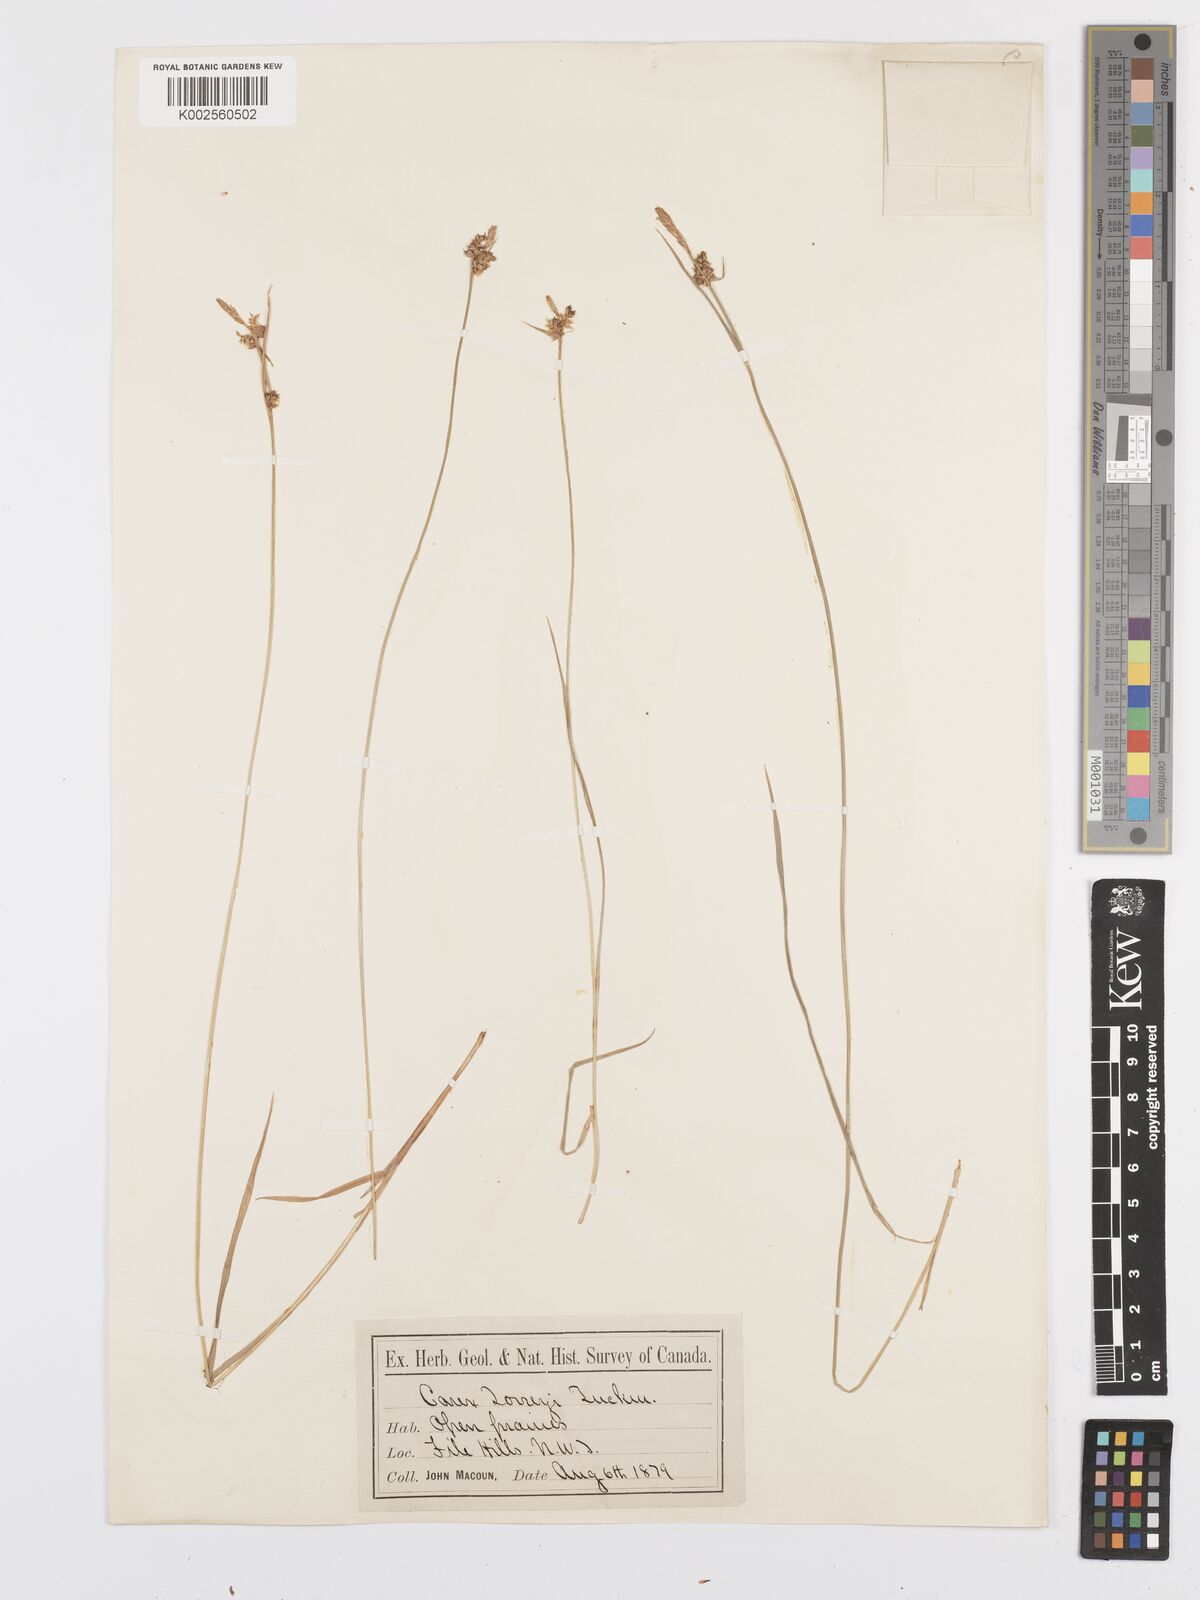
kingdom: Plantae
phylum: Tracheophyta
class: Liliopsida
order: Poales
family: Cyperaceae
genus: Carex
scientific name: Carex torreyi
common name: Torrey's sedge
